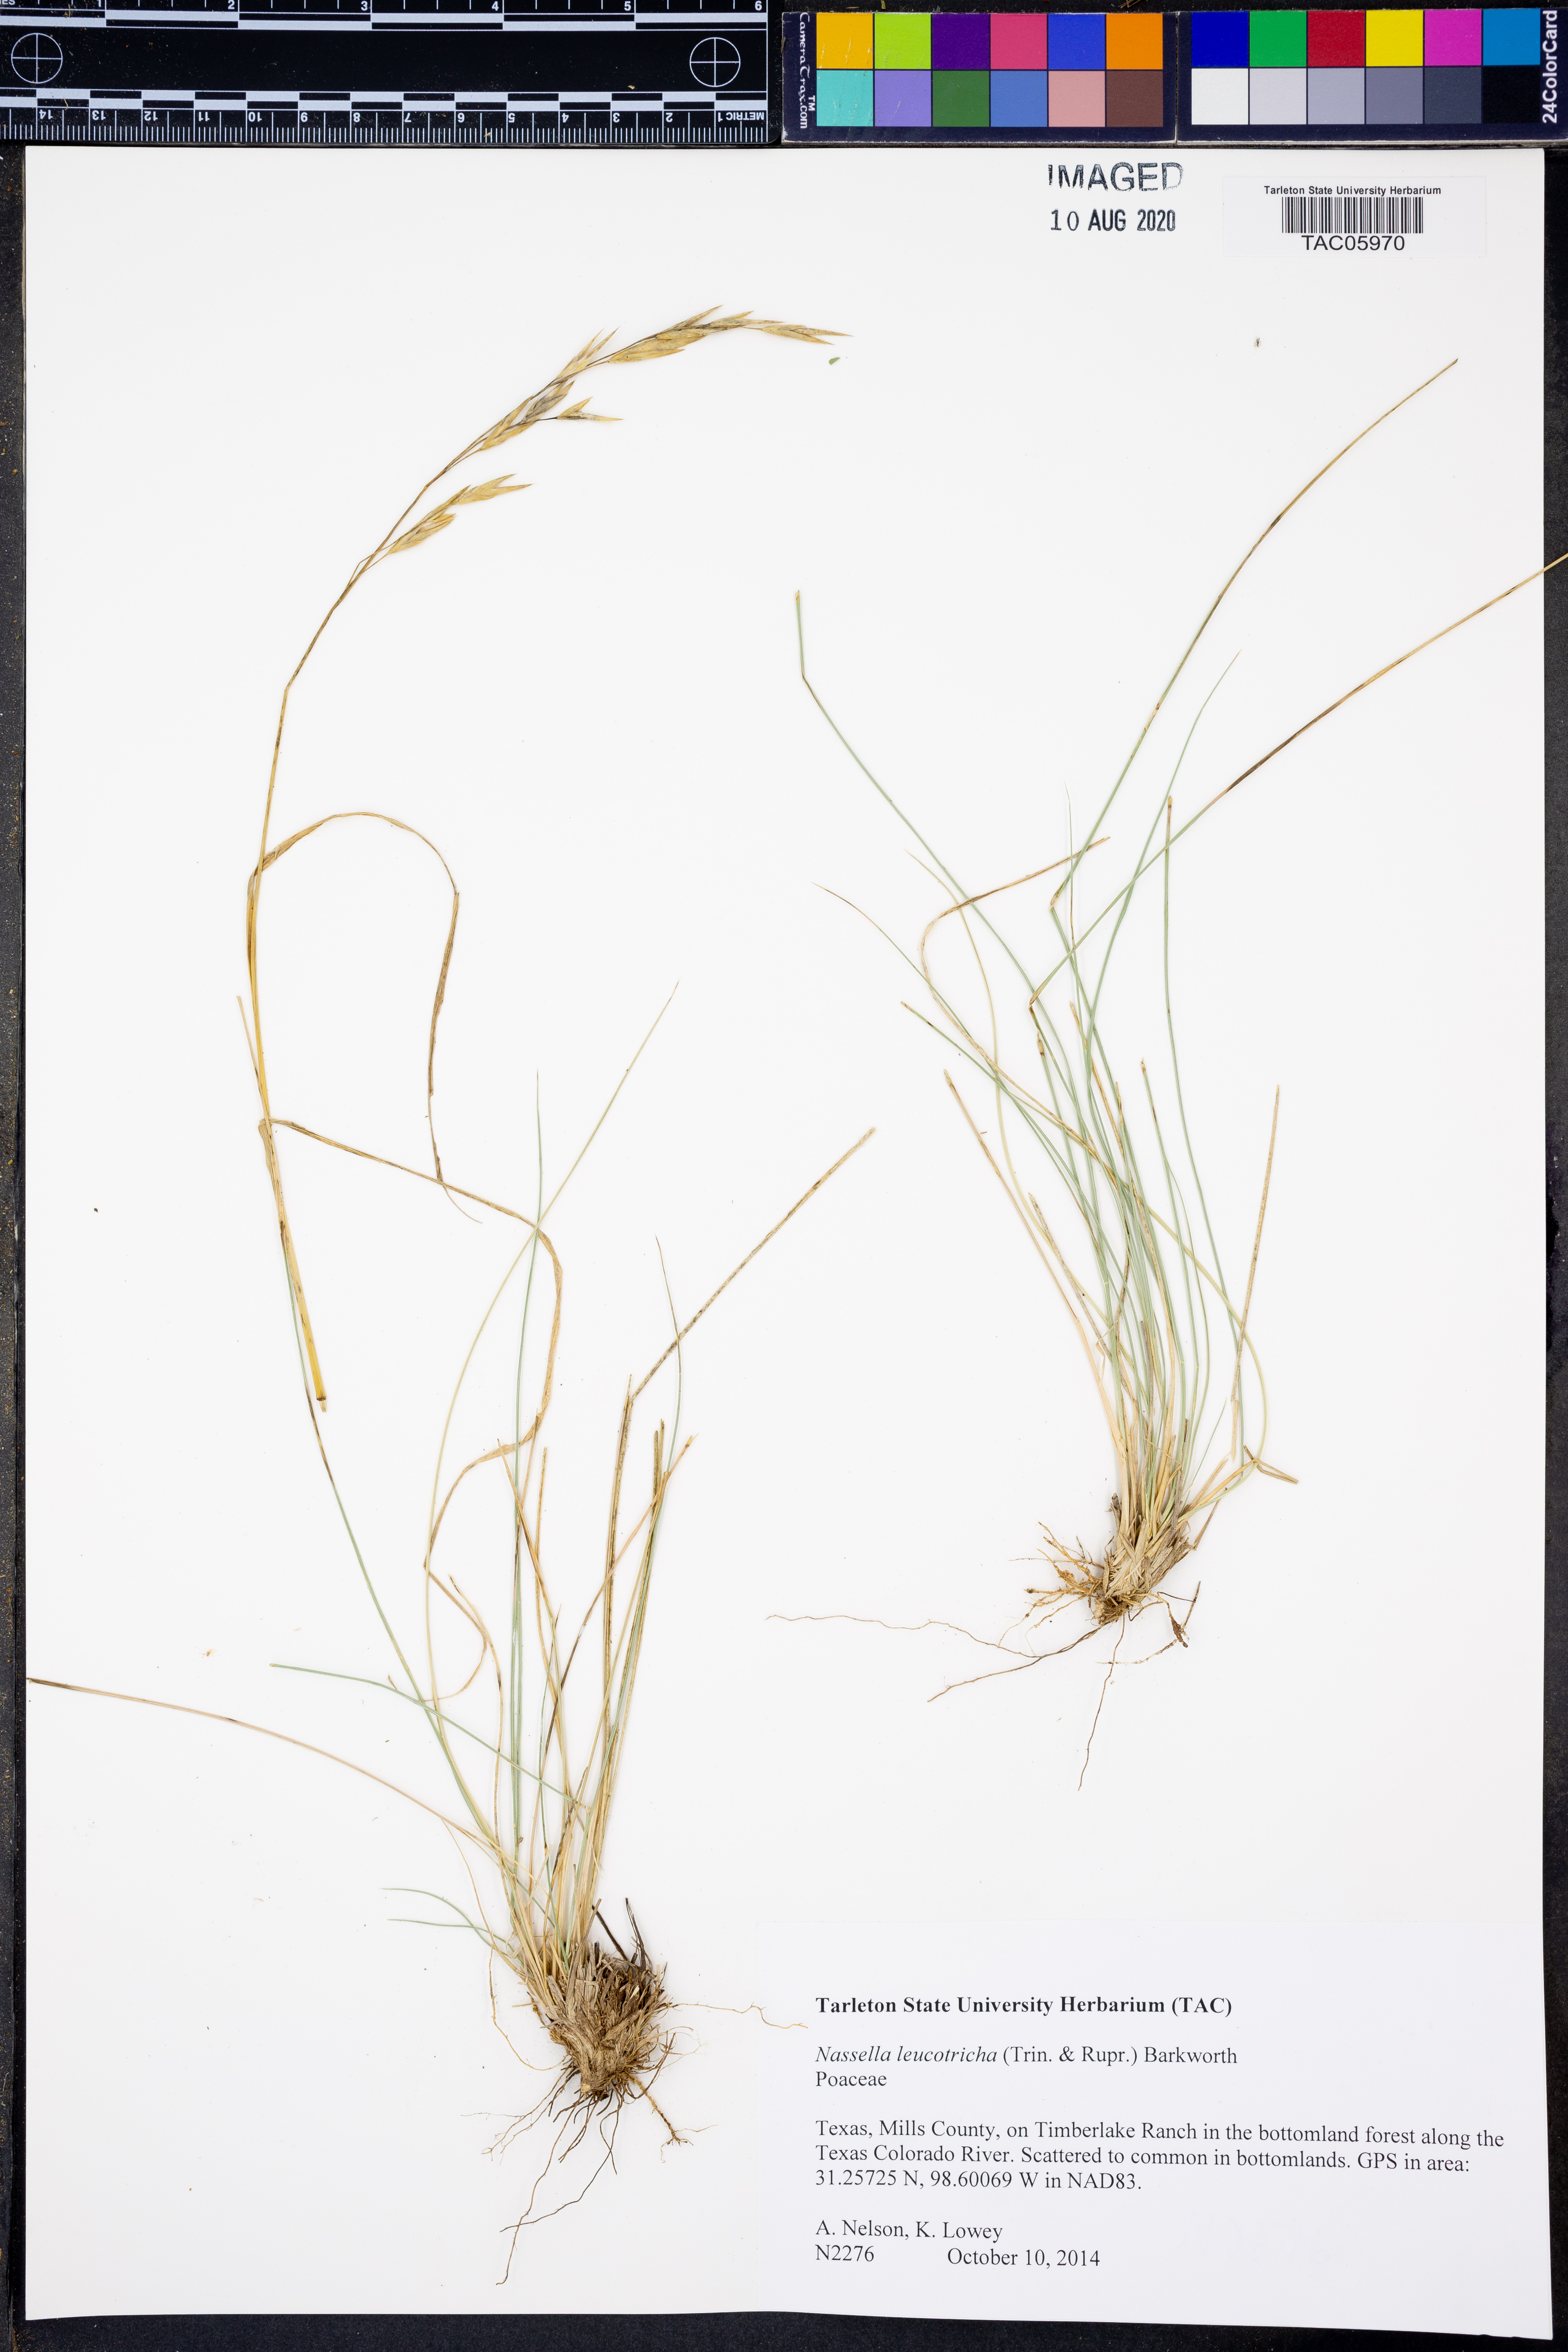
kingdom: Plantae
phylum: Tracheophyta
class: Liliopsida
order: Poales
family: Poaceae
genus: Nassella
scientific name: Nassella leucotricha
